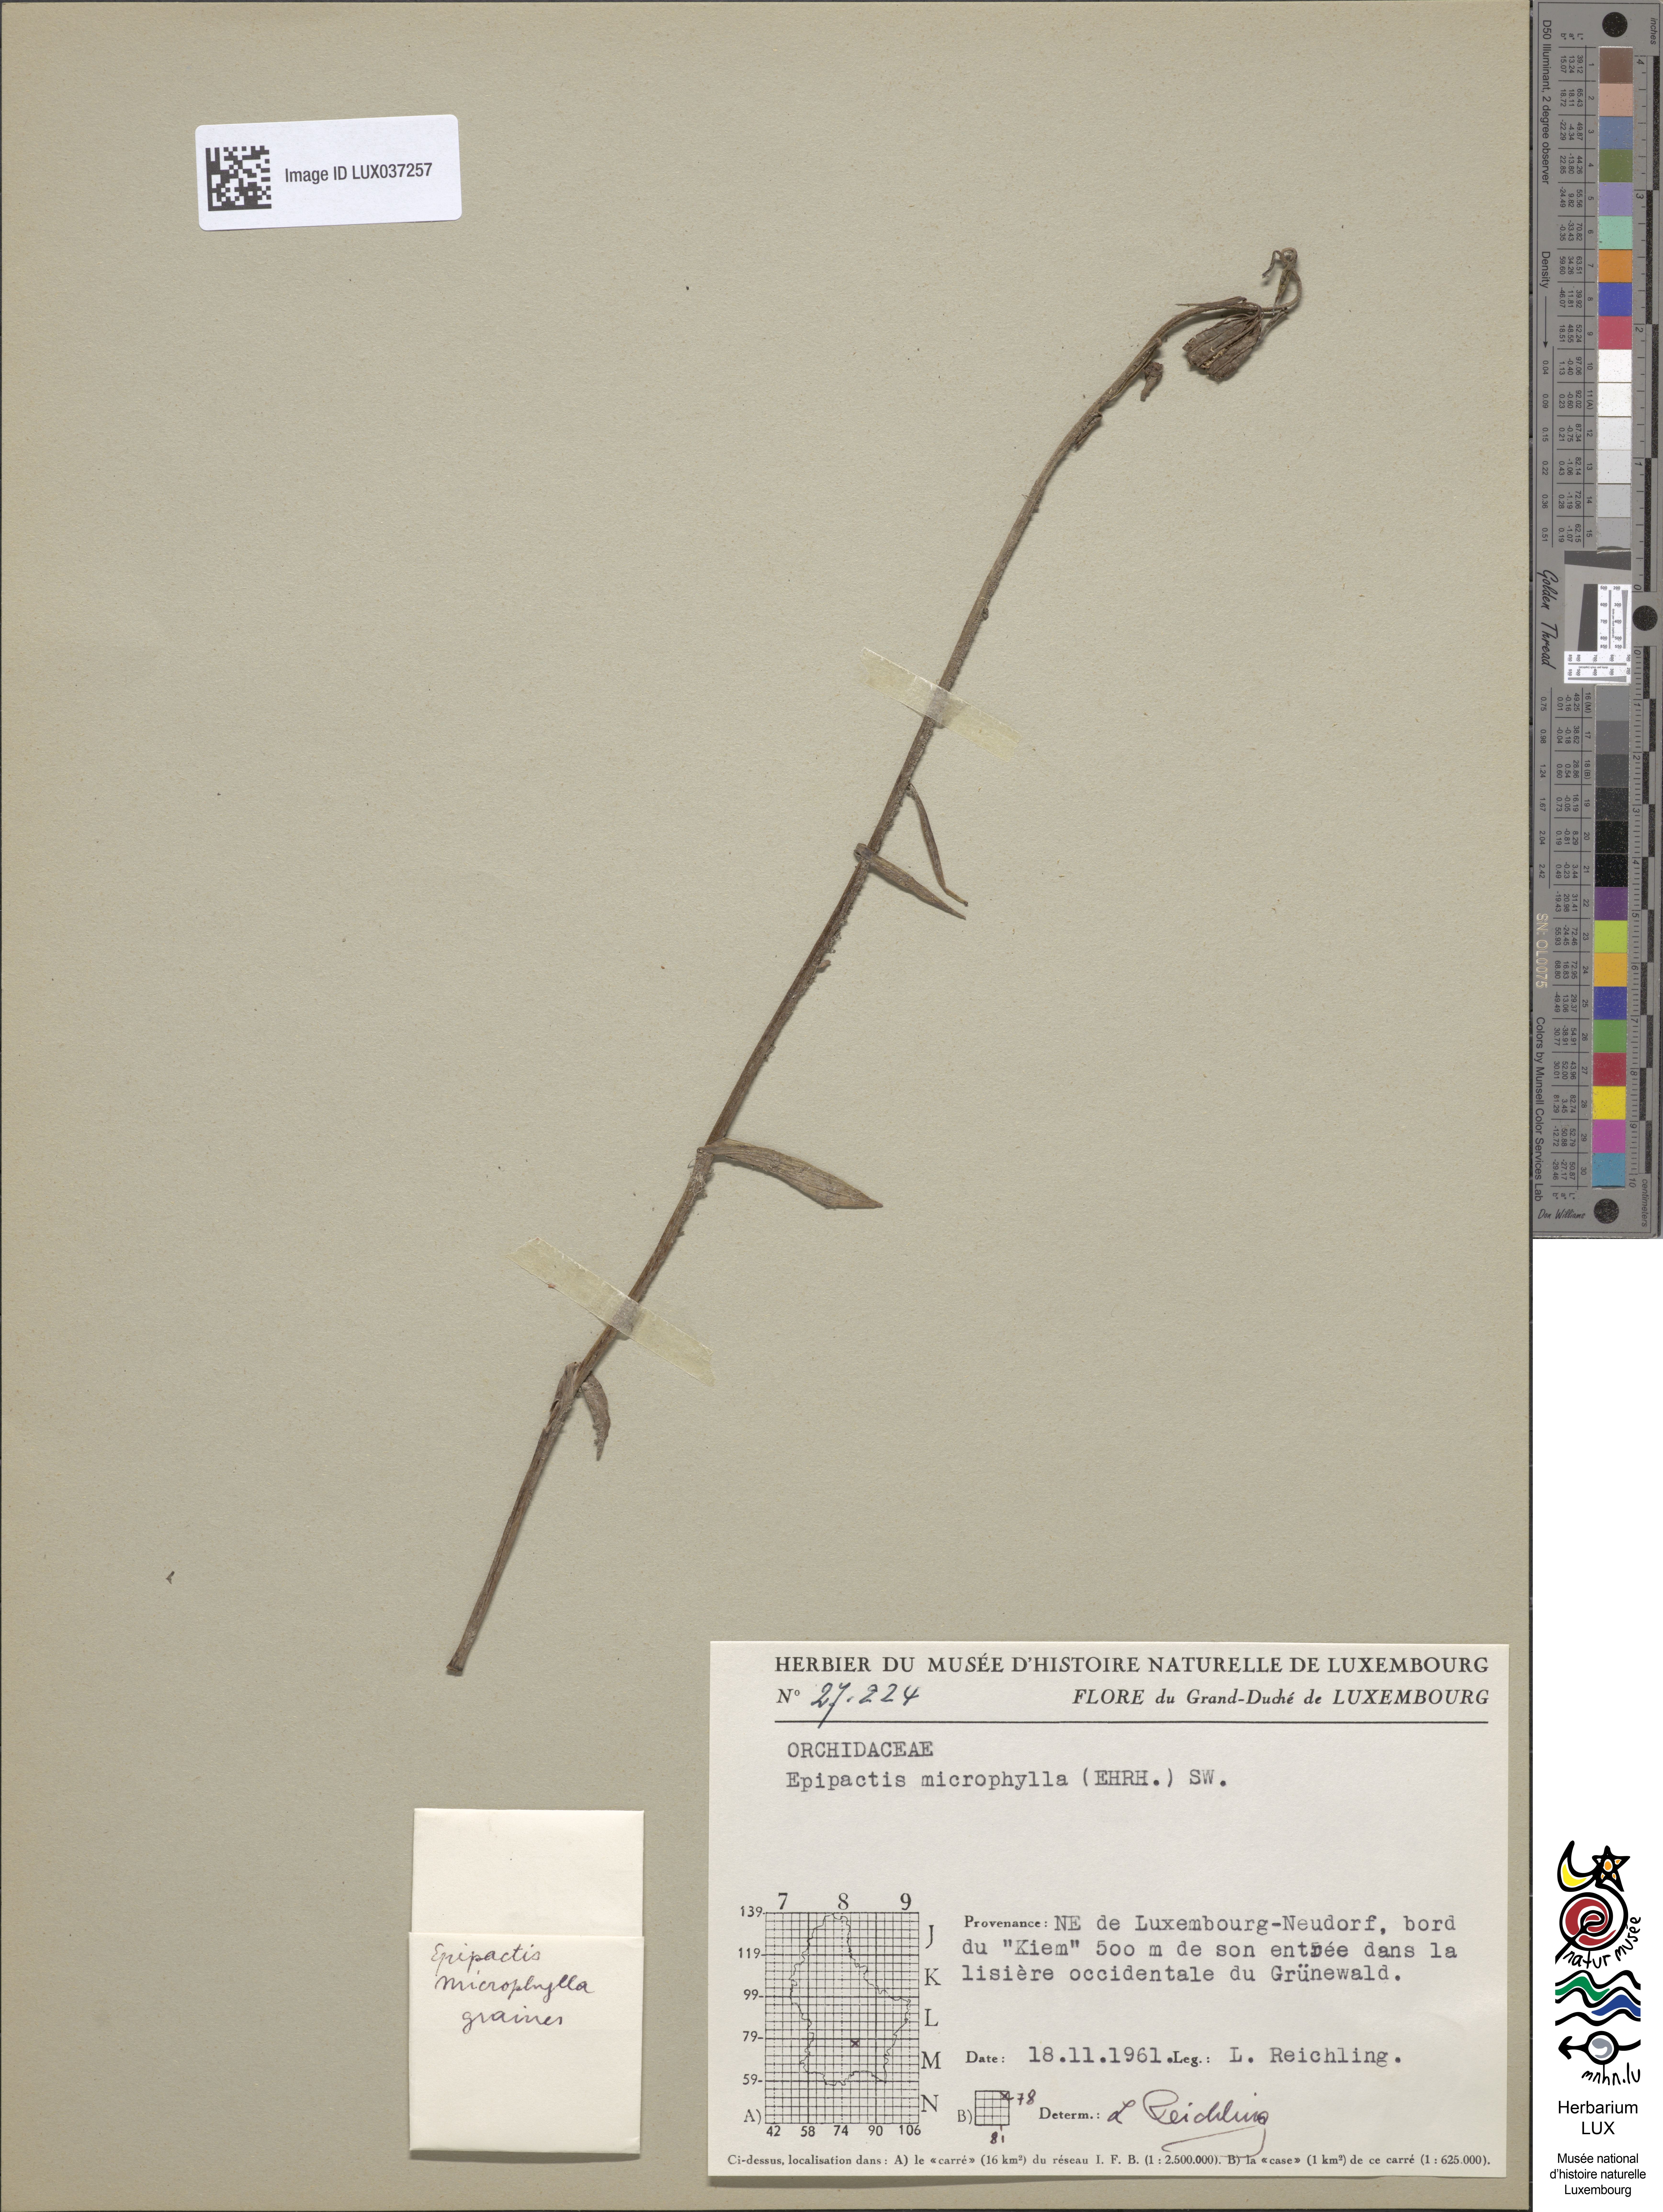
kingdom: Plantae
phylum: Tracheophyta
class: Liliopsida
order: Asparagales
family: Orchidaceae
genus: Epipactis
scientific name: Epipactis microphylla
